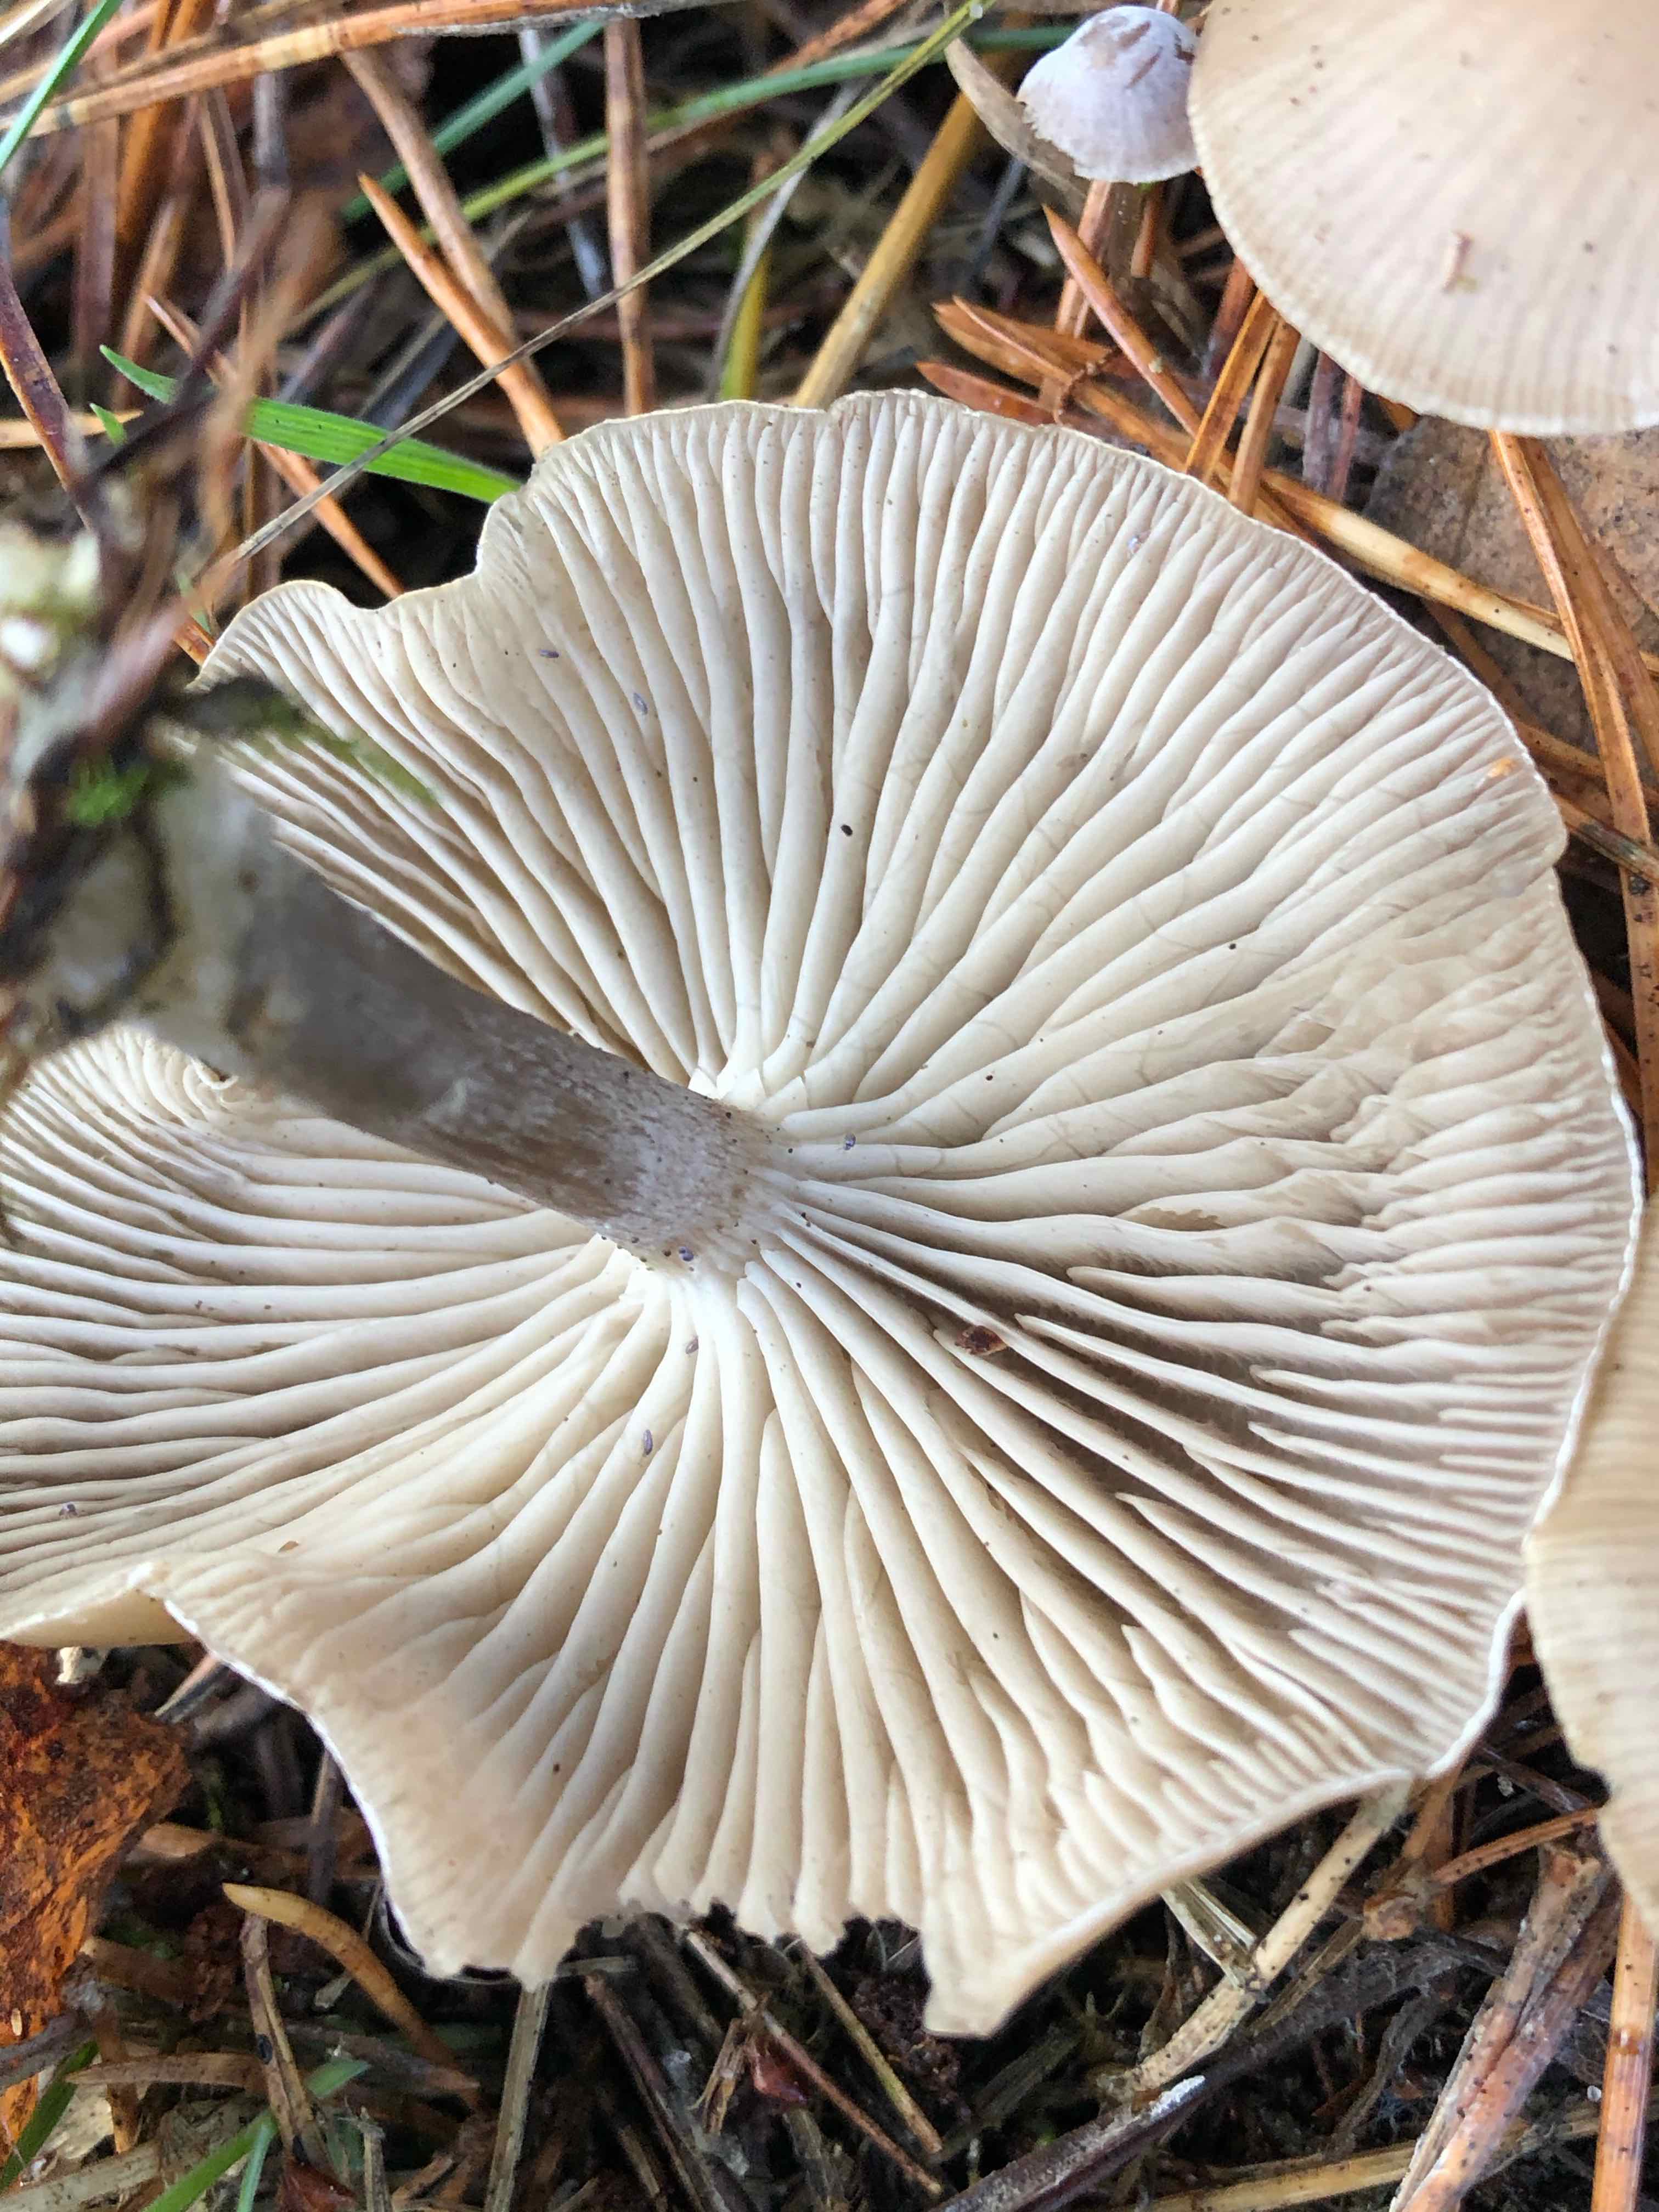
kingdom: Fungi
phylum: Basidiomycota
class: Agaricomycetes
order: Agaricales
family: Tricholomataceae
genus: Clitocybe
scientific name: Clitocybe vibecina
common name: randstribet tragthat
